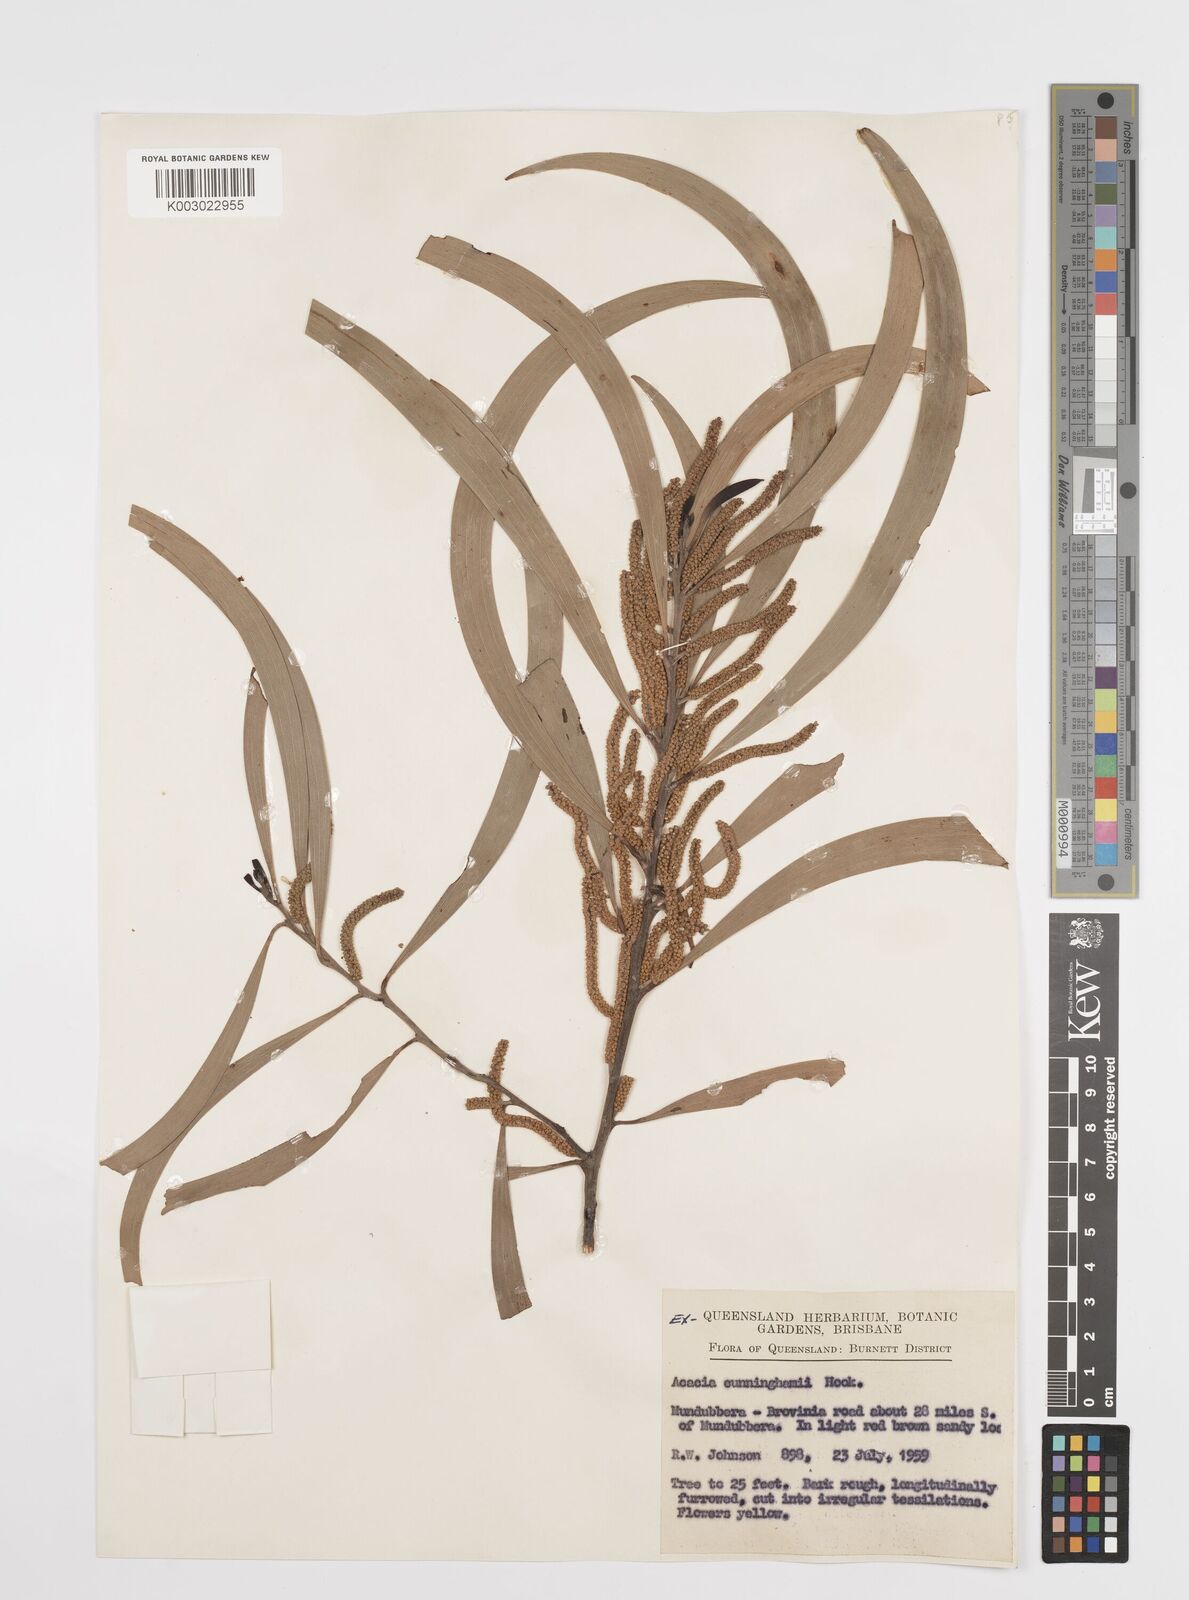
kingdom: Plantae
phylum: Tracheophyta
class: Magnoliopsida
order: Fabales
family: Fabaceae
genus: Acacia
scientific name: Acacia longispicata
